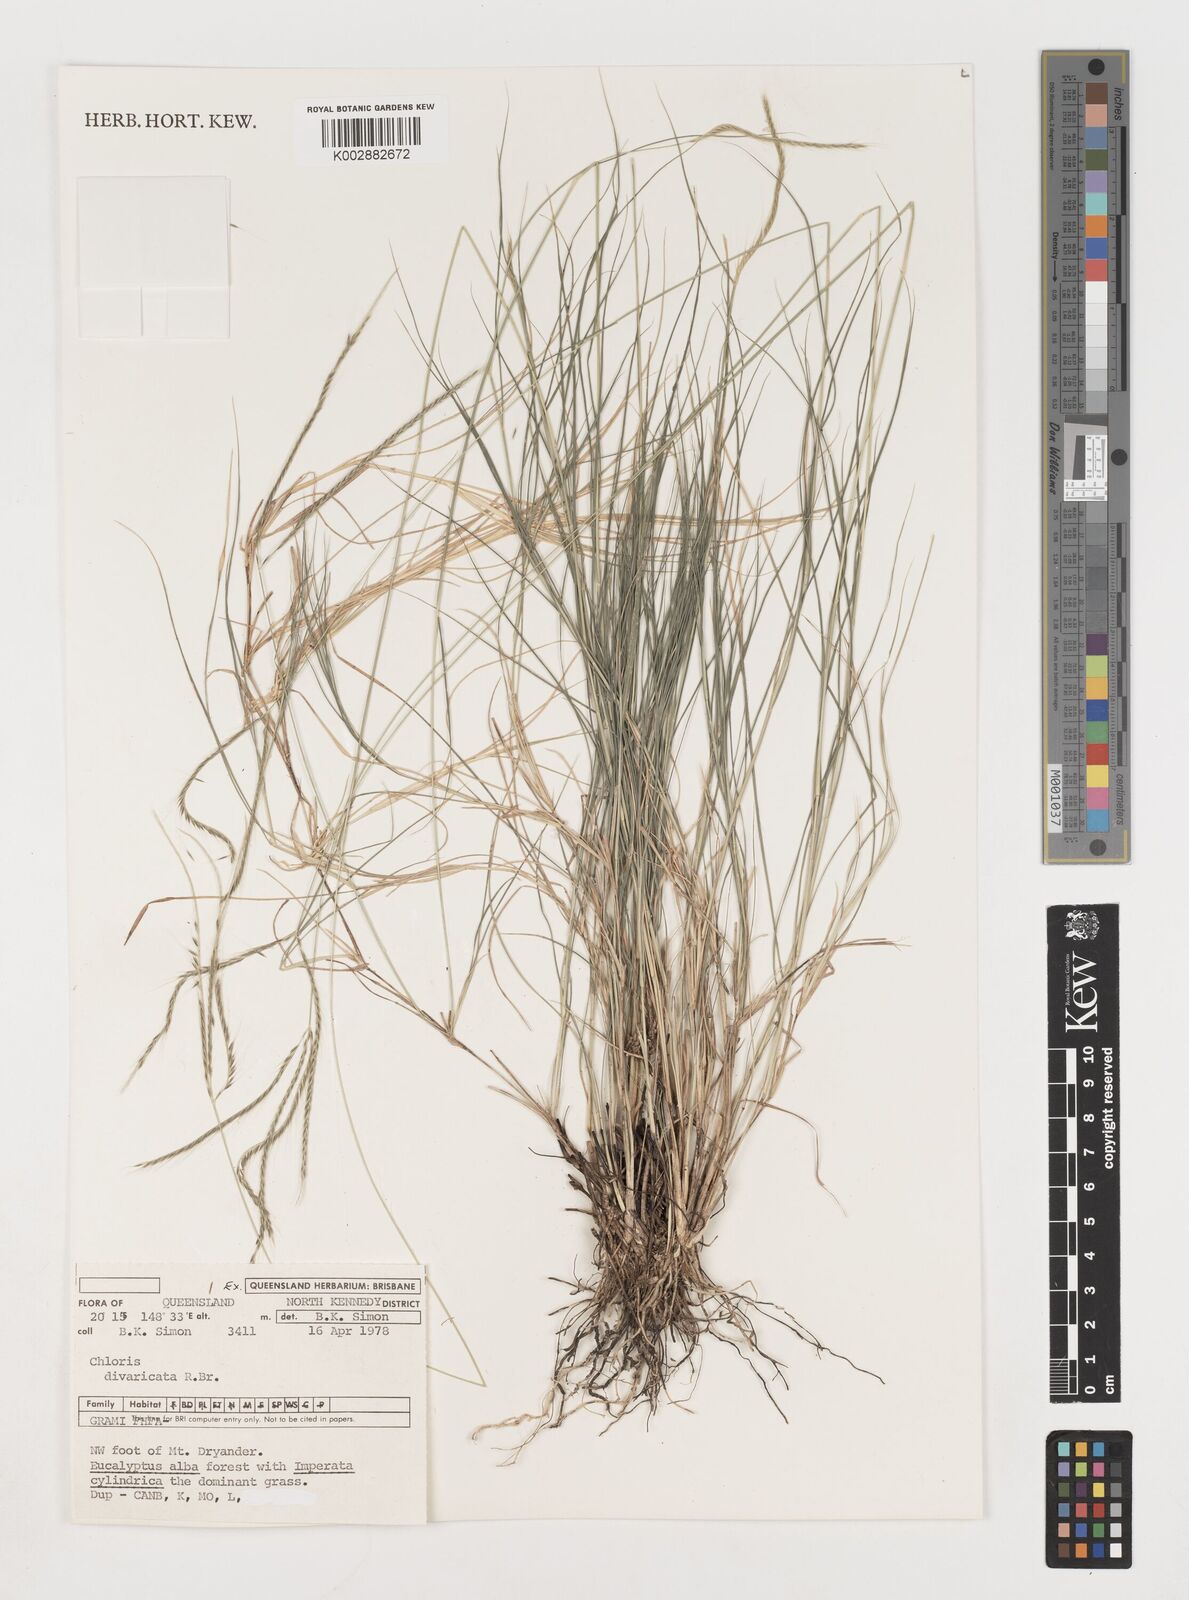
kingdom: Plantae
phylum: Tracheophyta
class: Liliopsida
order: Poales
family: Poaceae
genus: Chloris
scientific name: Chloris divaricata
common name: Spreading windmill grass
